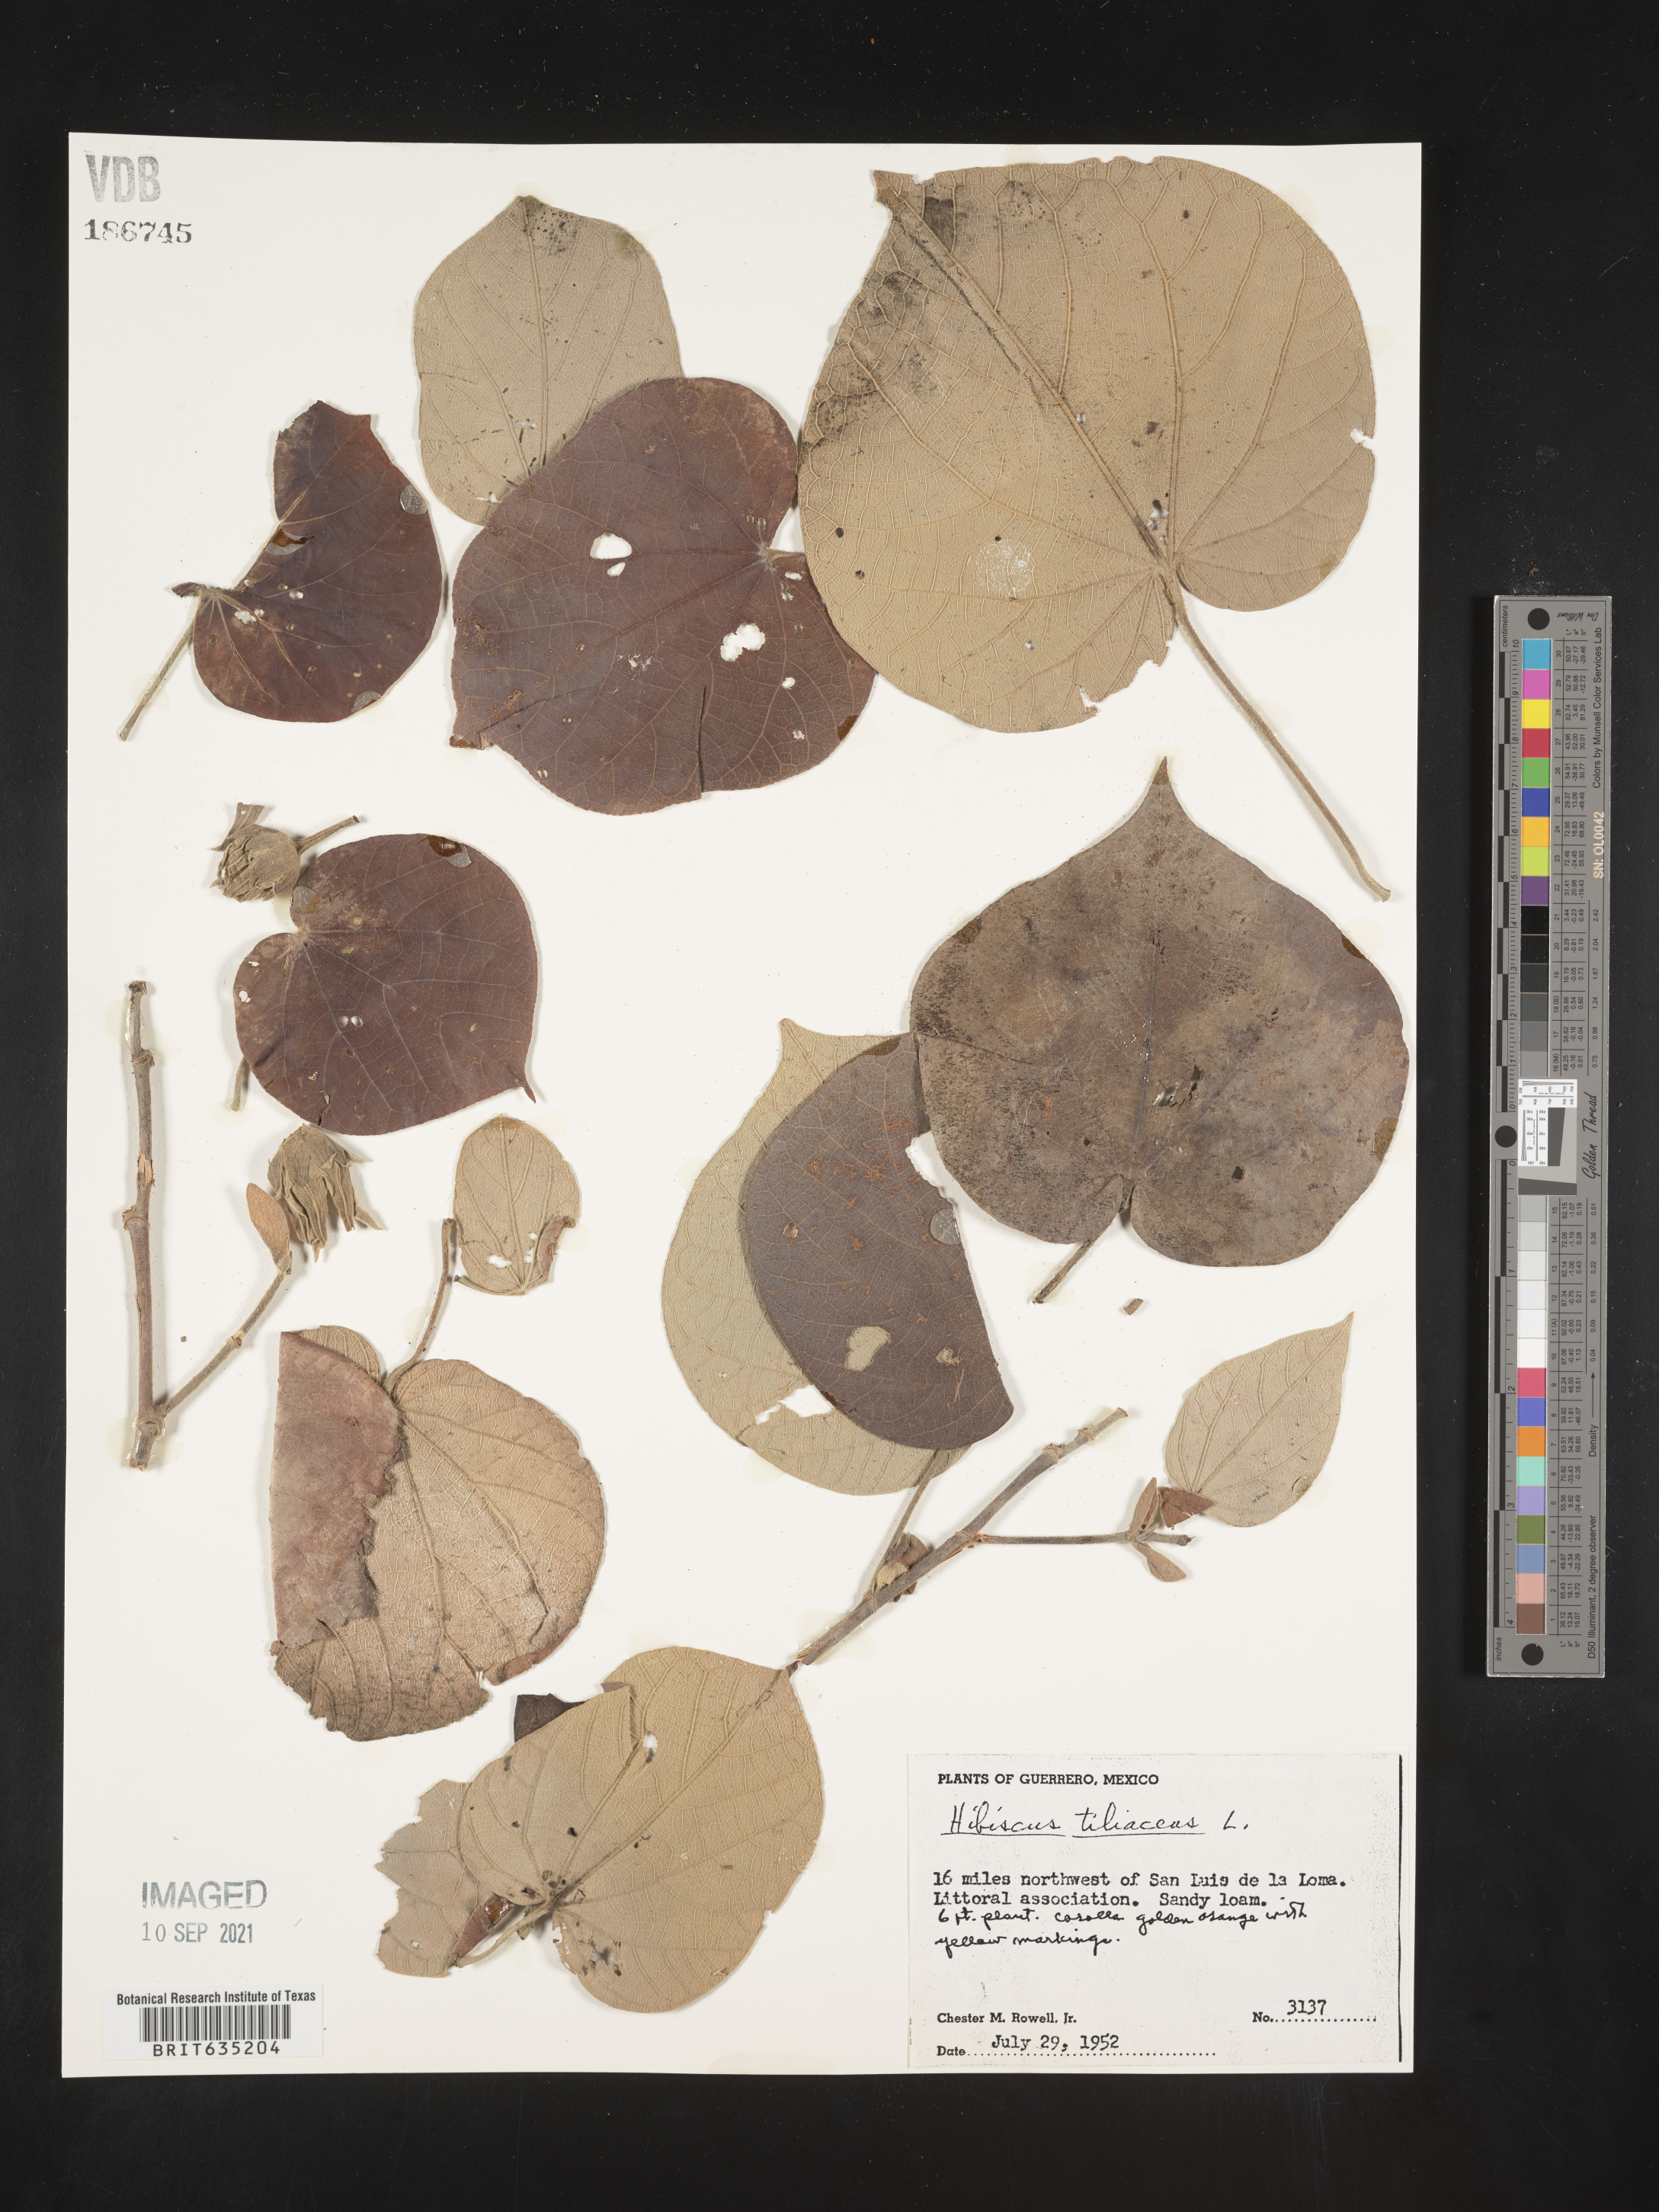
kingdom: Plantae
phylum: Tracheophyta
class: Magnoliopsida
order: Malvales
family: Malvaceae
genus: Hibiscus
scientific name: Hibiscus
